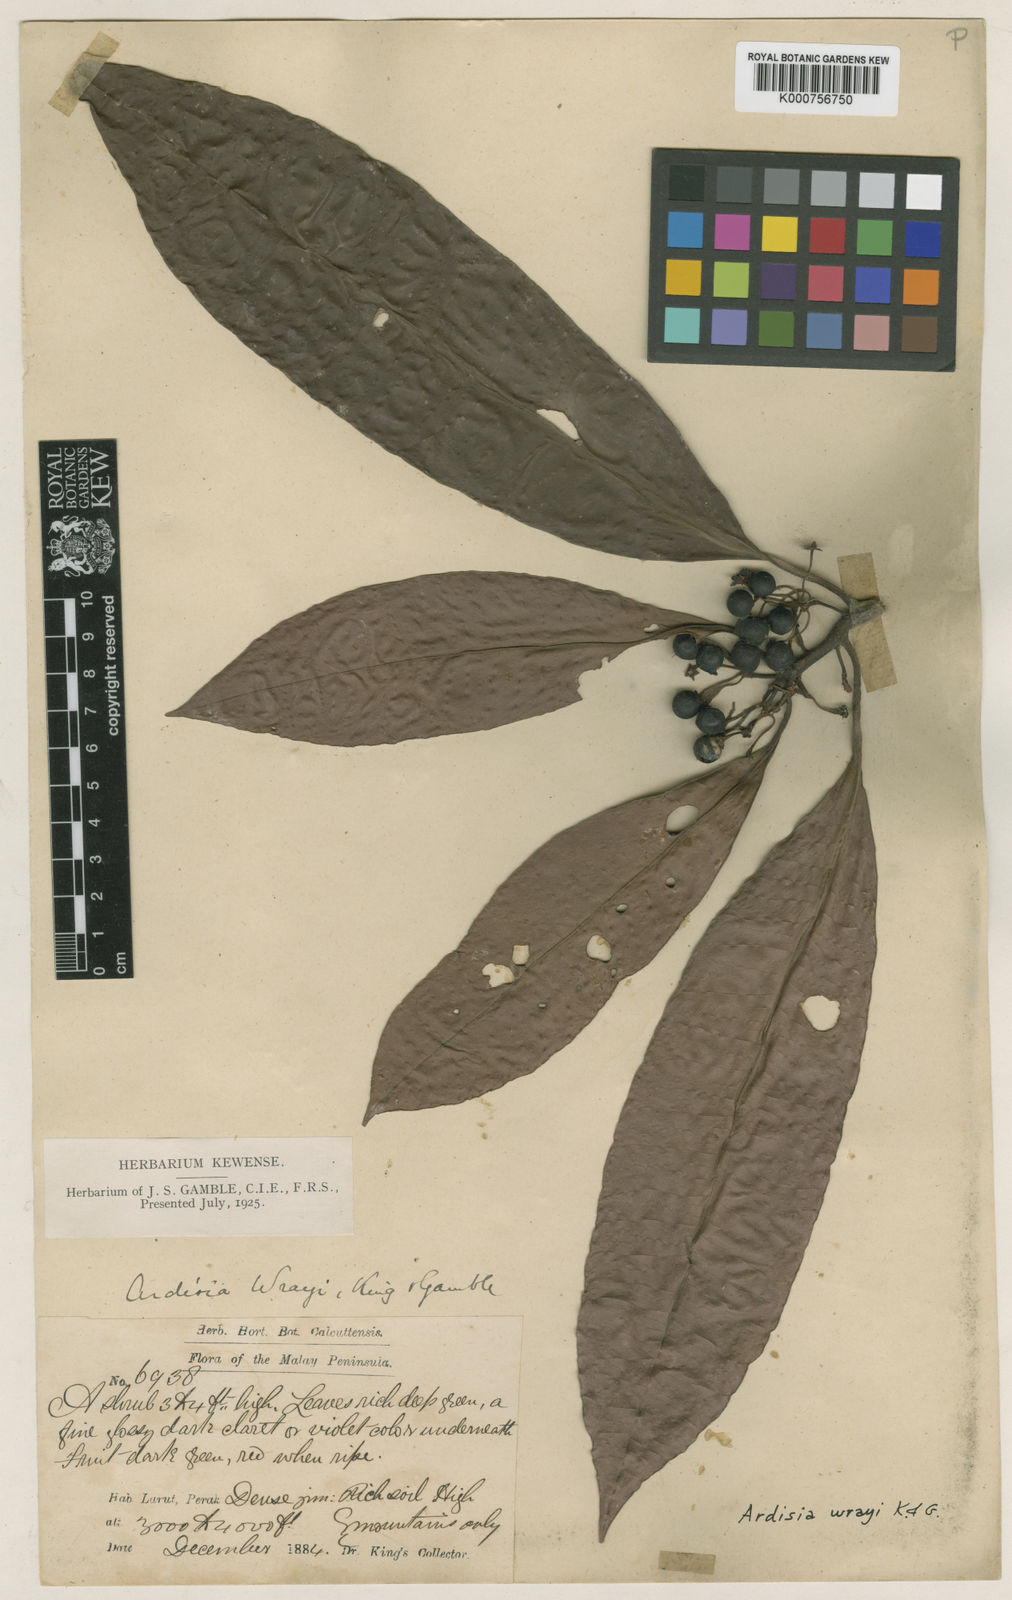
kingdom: Plantae
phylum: Tracheophyta
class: Magnoliopsida
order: Ericales
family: Primulaceae
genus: Ardisia
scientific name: Ardisia sphenobasis
